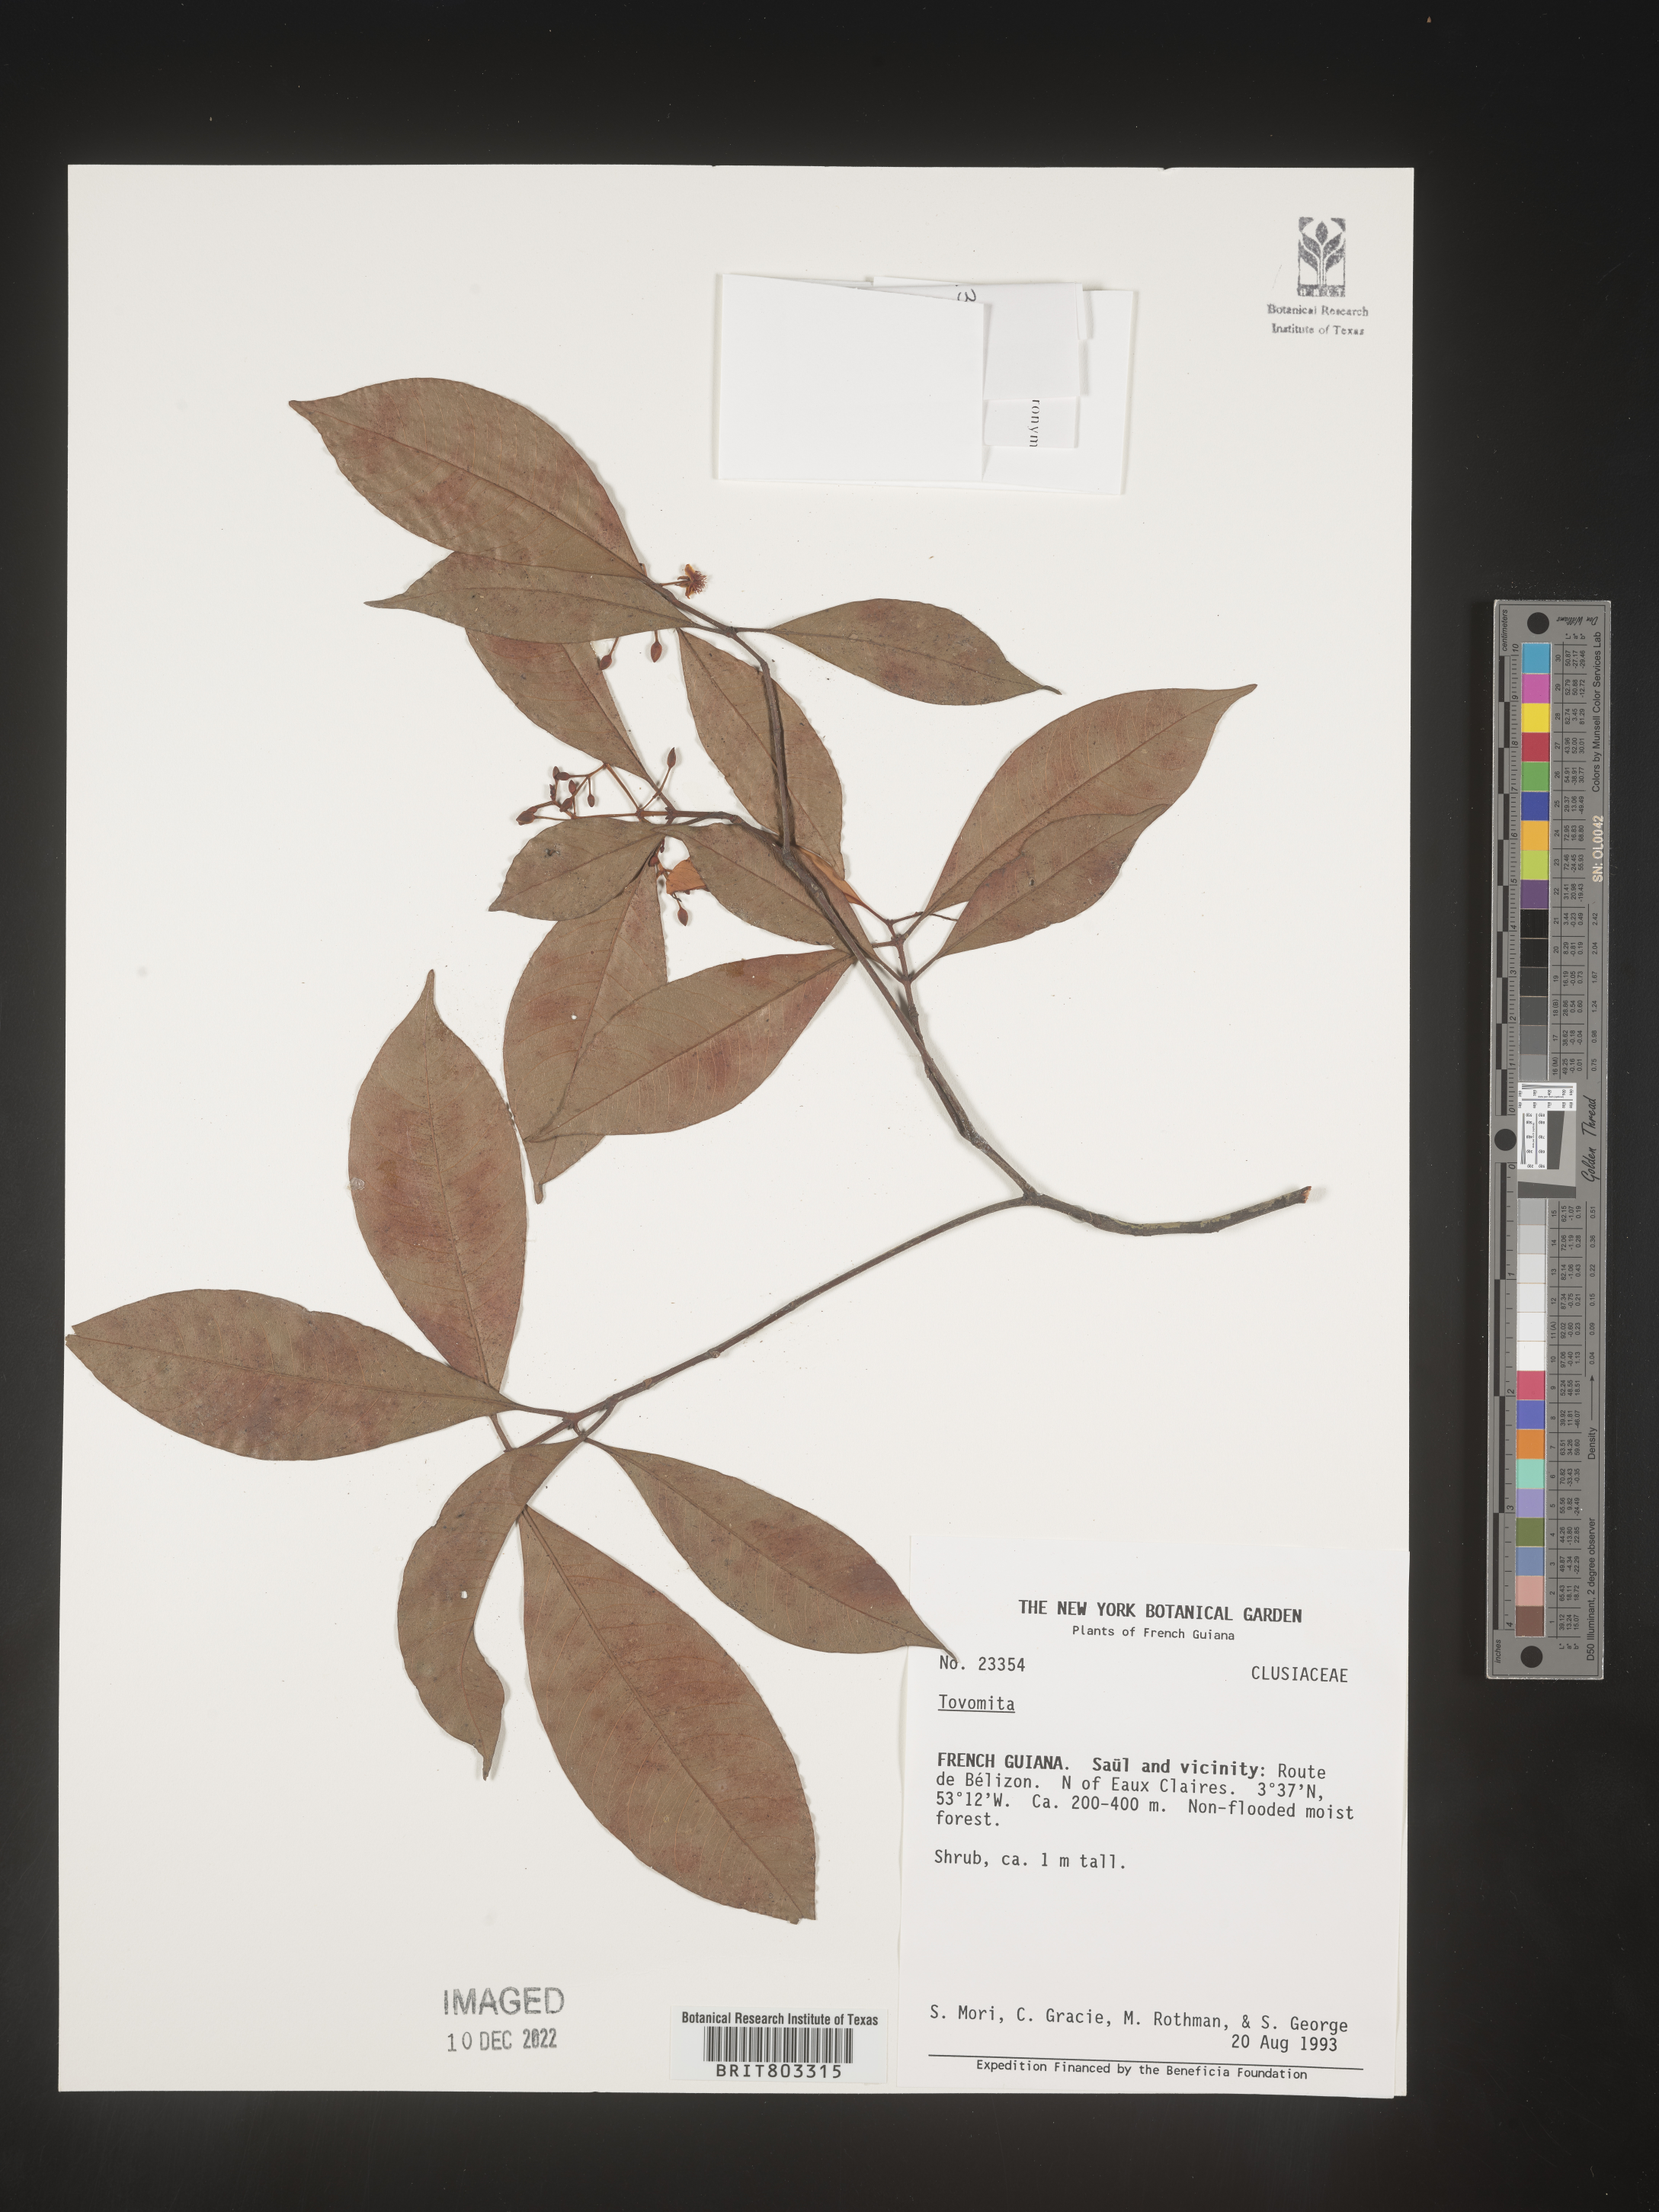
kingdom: Plantae
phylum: Tracheophyta
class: Magnoliopsida
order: Malpighiales
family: Clusiaceae
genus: Tovomita
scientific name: Tovomita
